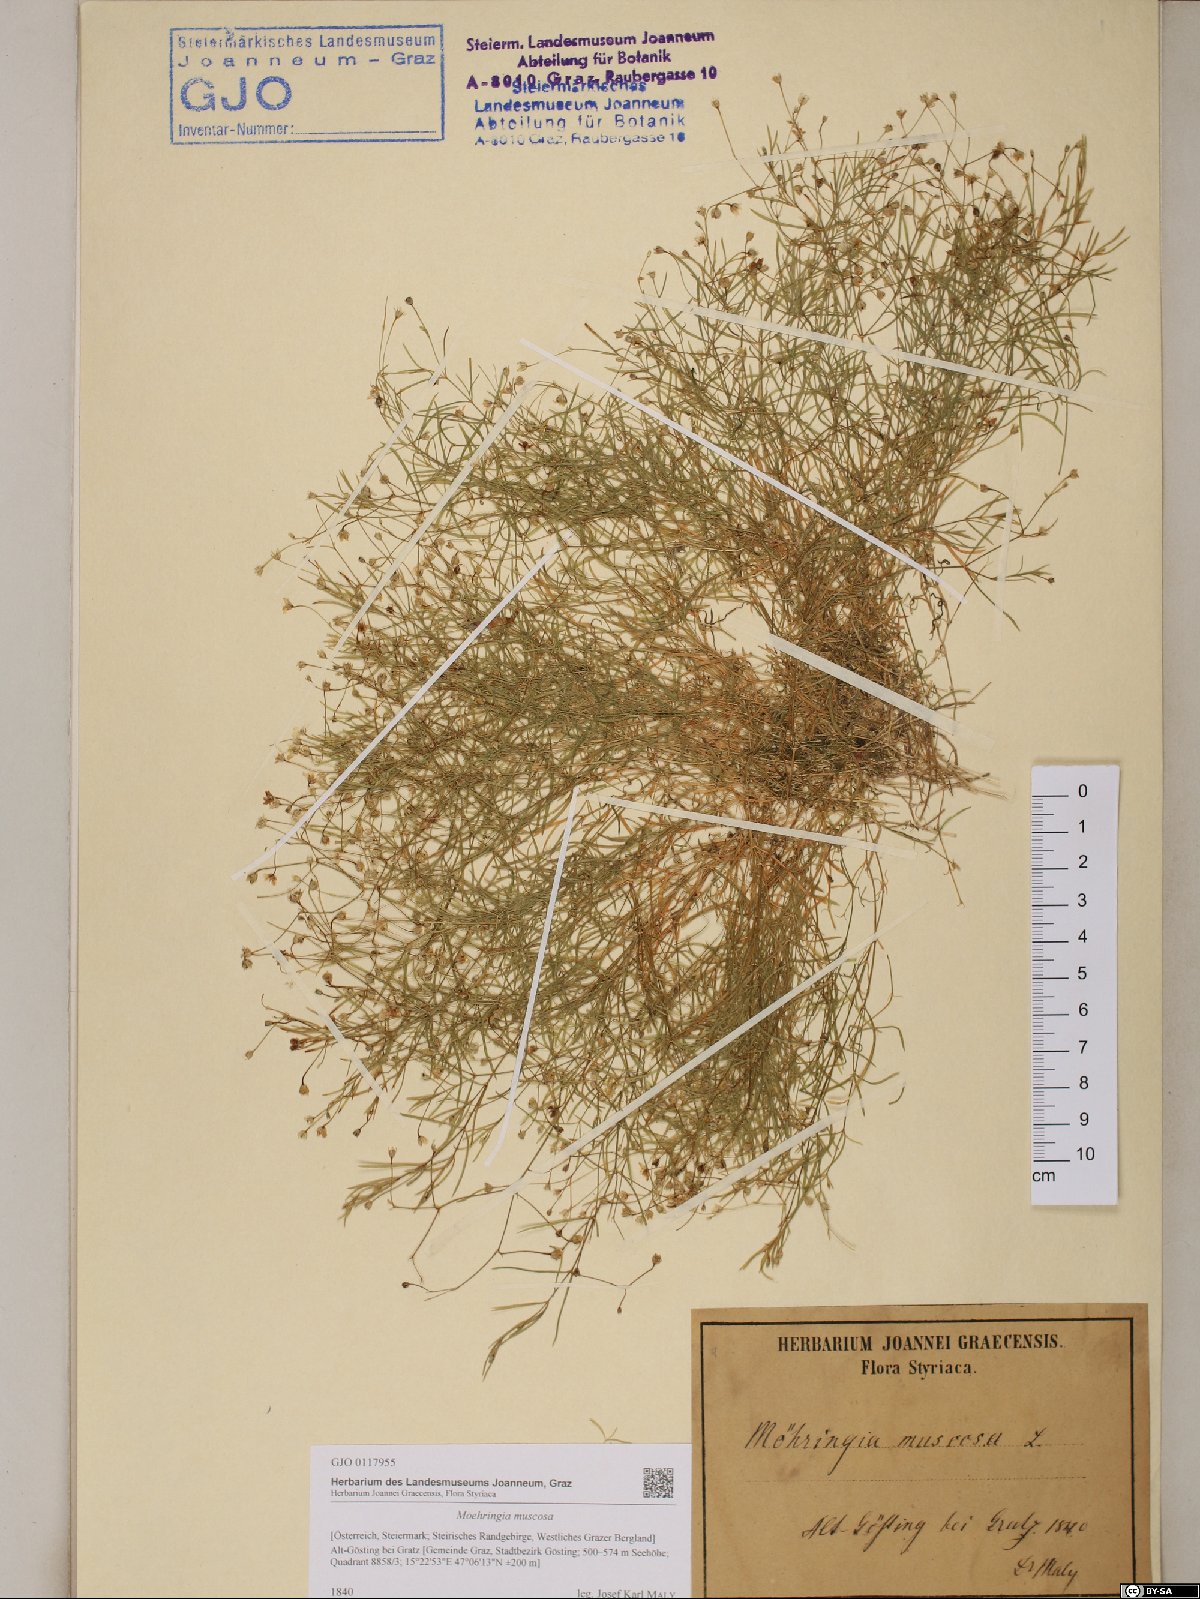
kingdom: Plantae
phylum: Tracheophyta
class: Magnoliopsida
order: Caryophyllales
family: Caryophyllaceae
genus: Moehringia
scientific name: Moehringia muscosa
